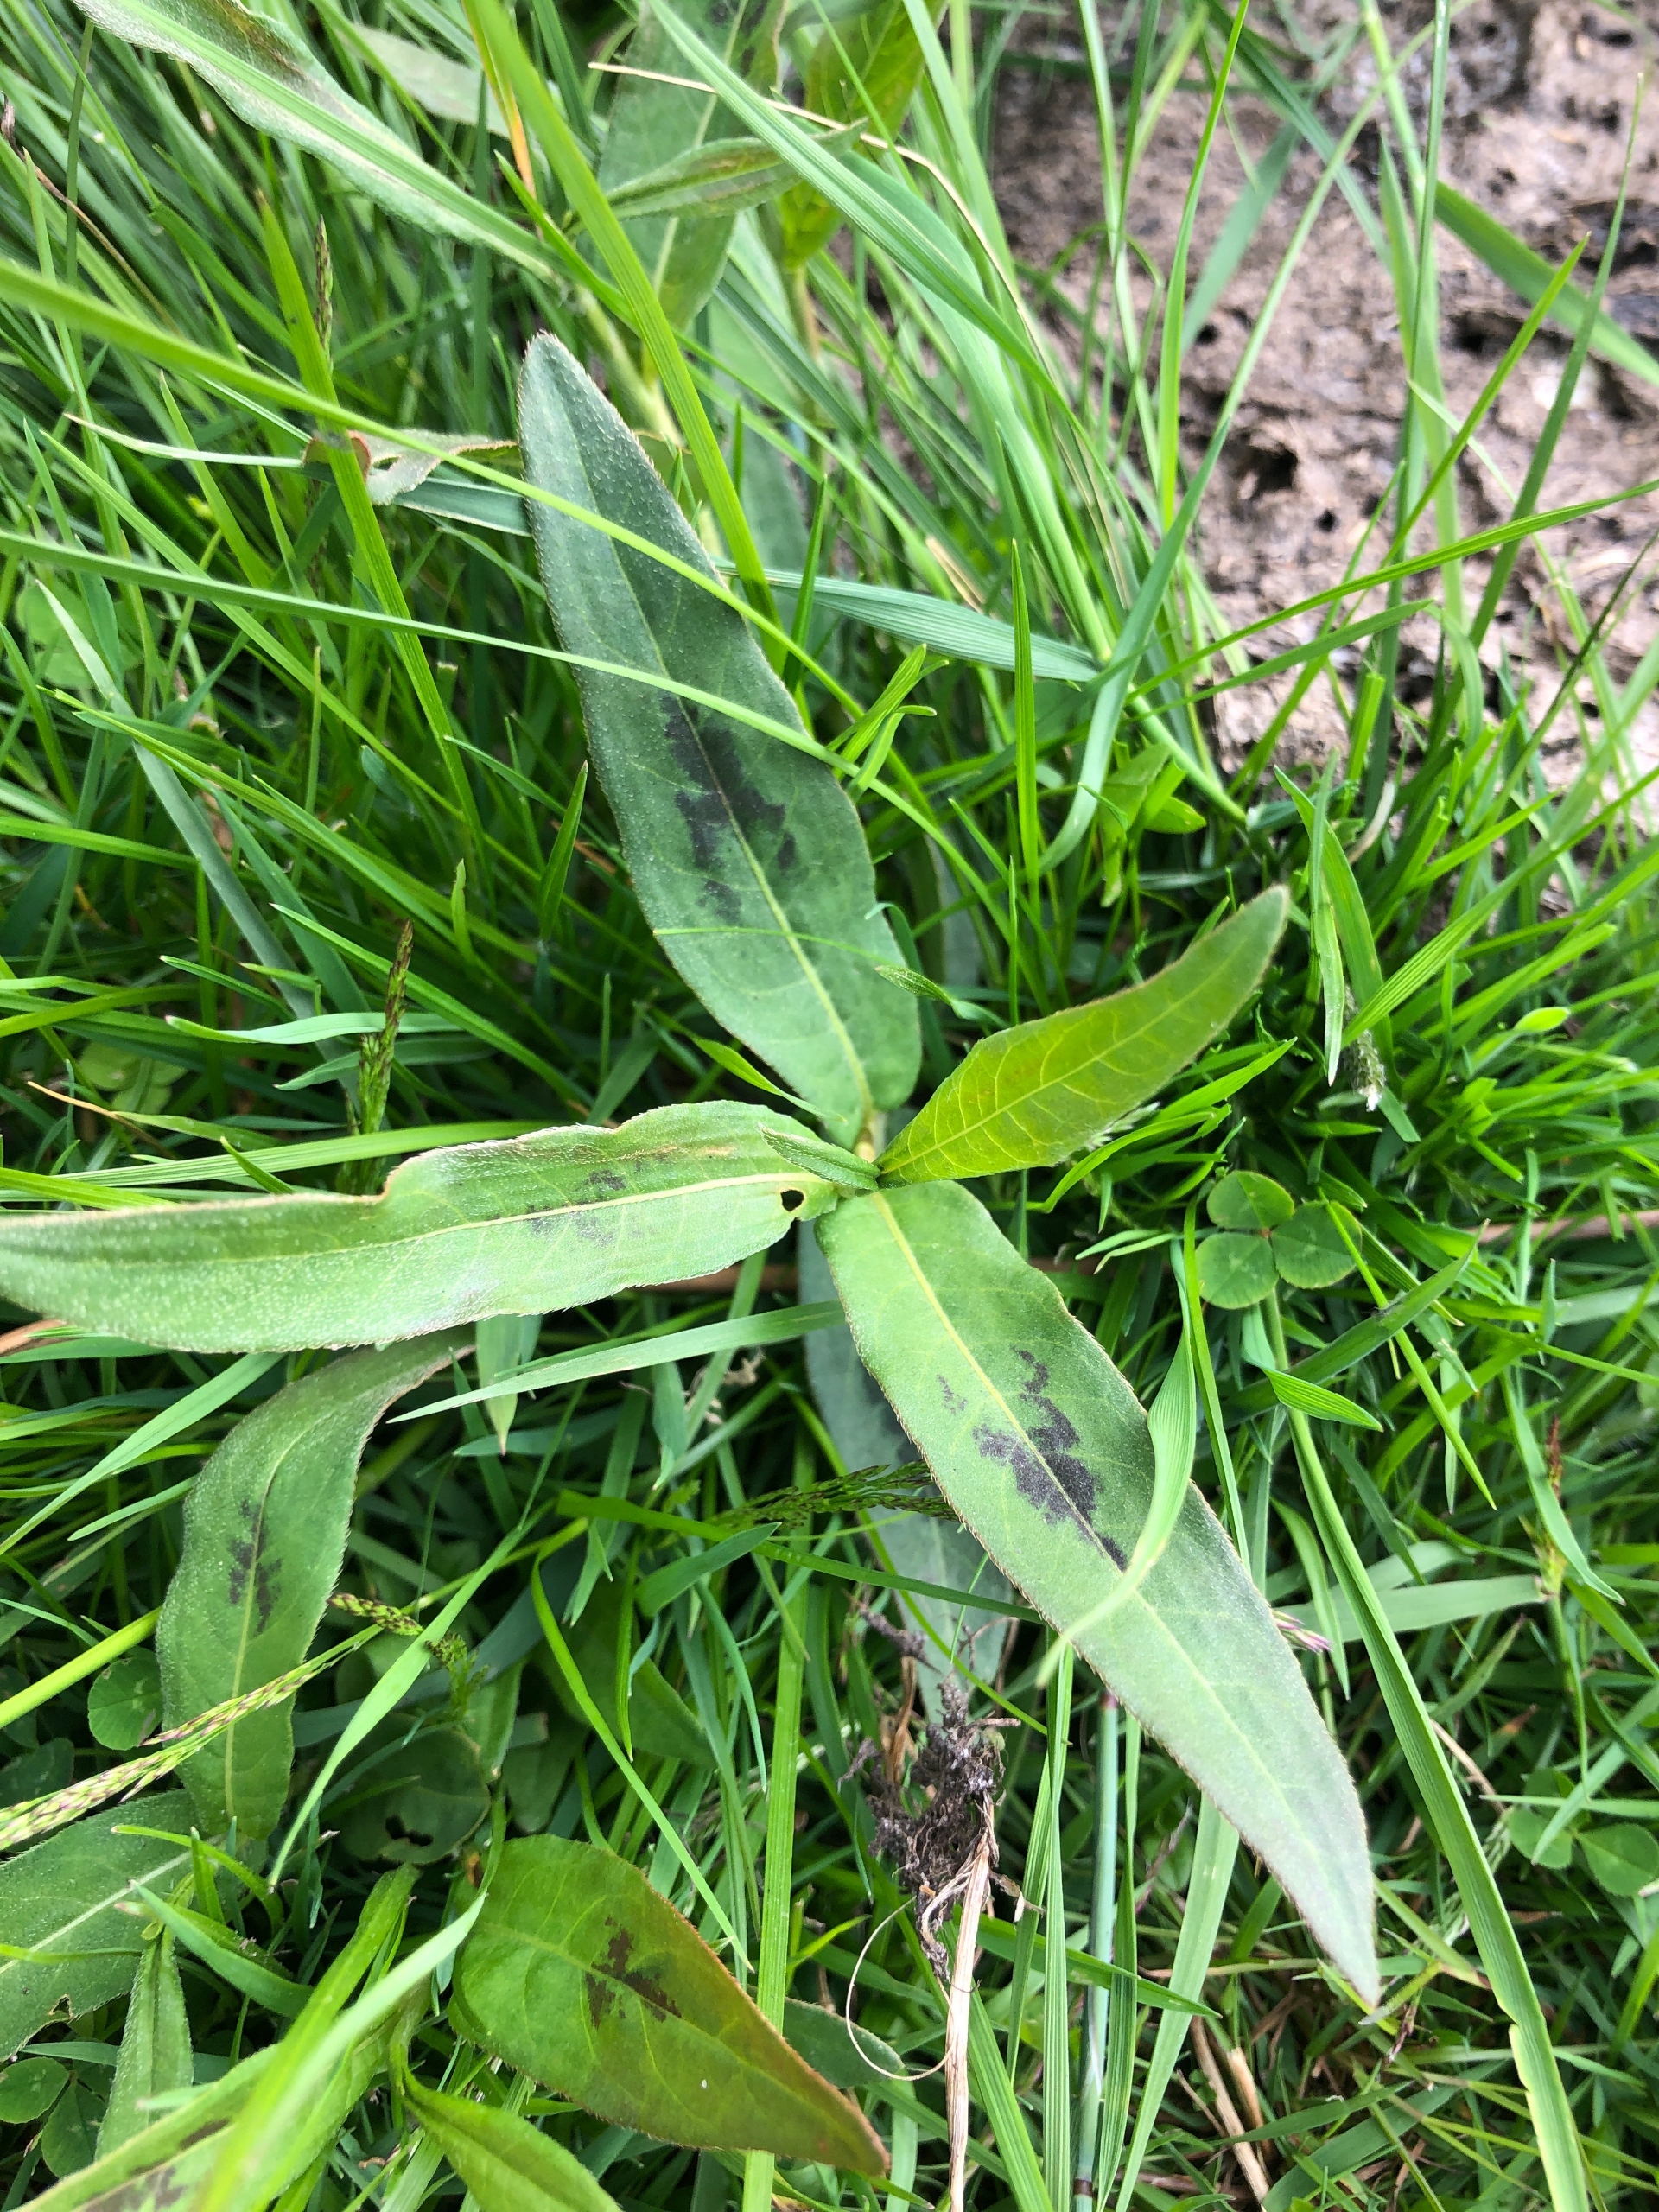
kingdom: Plantae
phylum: Tracheophyta
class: Magnoliopsida
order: Caryophyllales
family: Polygonaceae
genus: Persicaria
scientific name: Persicaria amphibia
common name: Vand-pileurt
